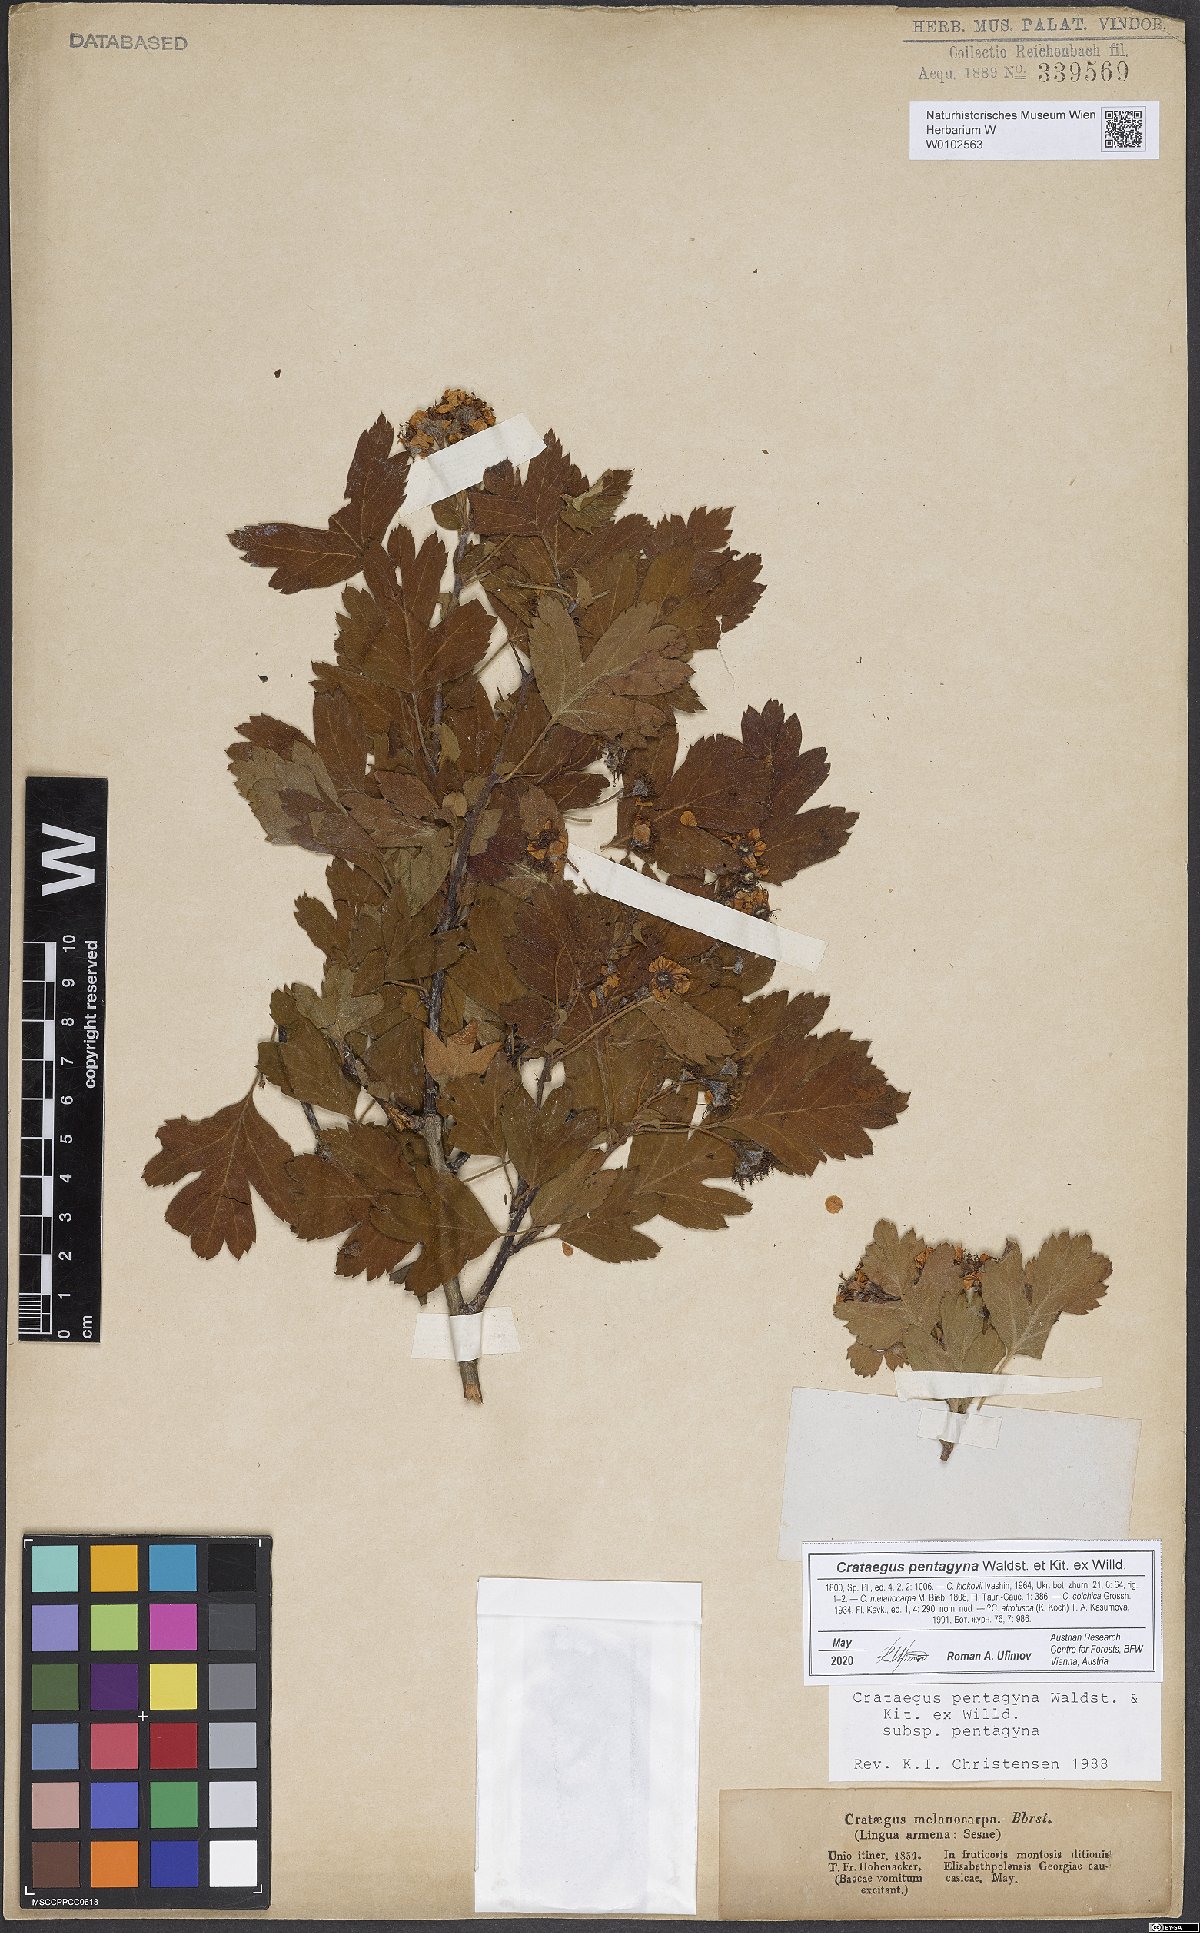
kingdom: Plantae
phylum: Tracheophyta
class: Magnoliopsida
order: Rosales
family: Rosaceae
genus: Crataegus
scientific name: Crataegus pentagyna
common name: Small-flowered black hawthorn
